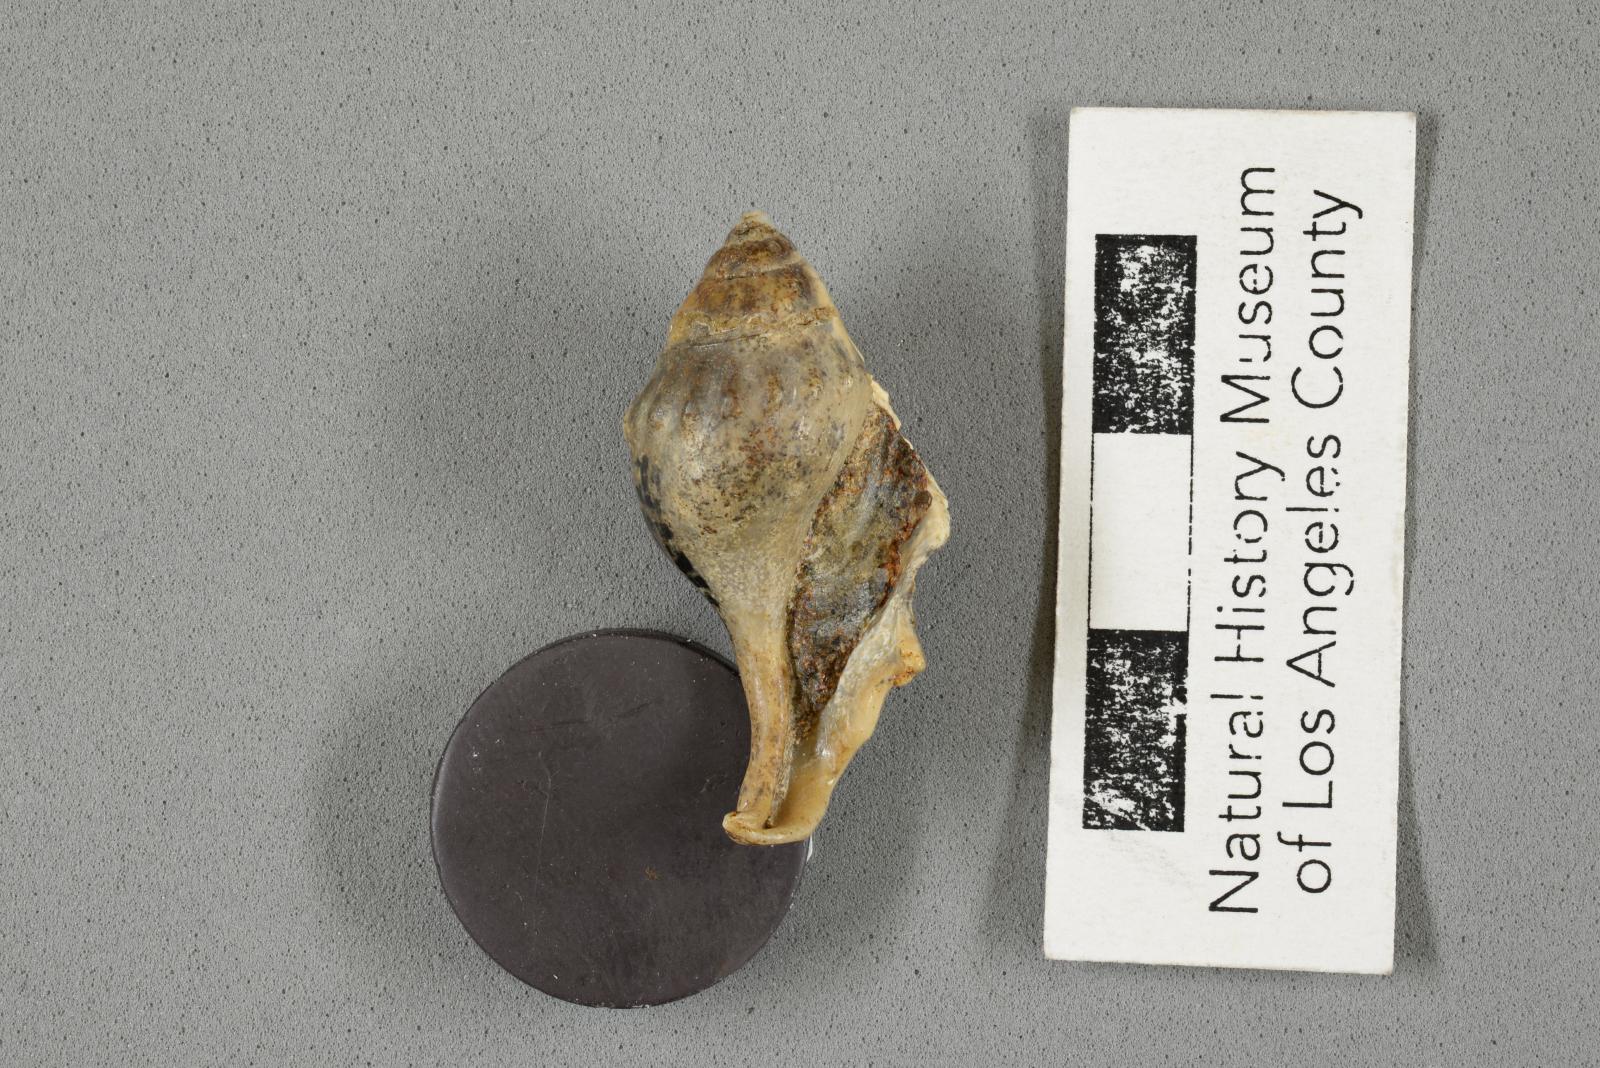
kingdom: Animalia
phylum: Mollusca
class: Gastropoda
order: Littorinimorpha
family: Aporrhaidae
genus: Pyktes
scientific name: Pyktes aspris
